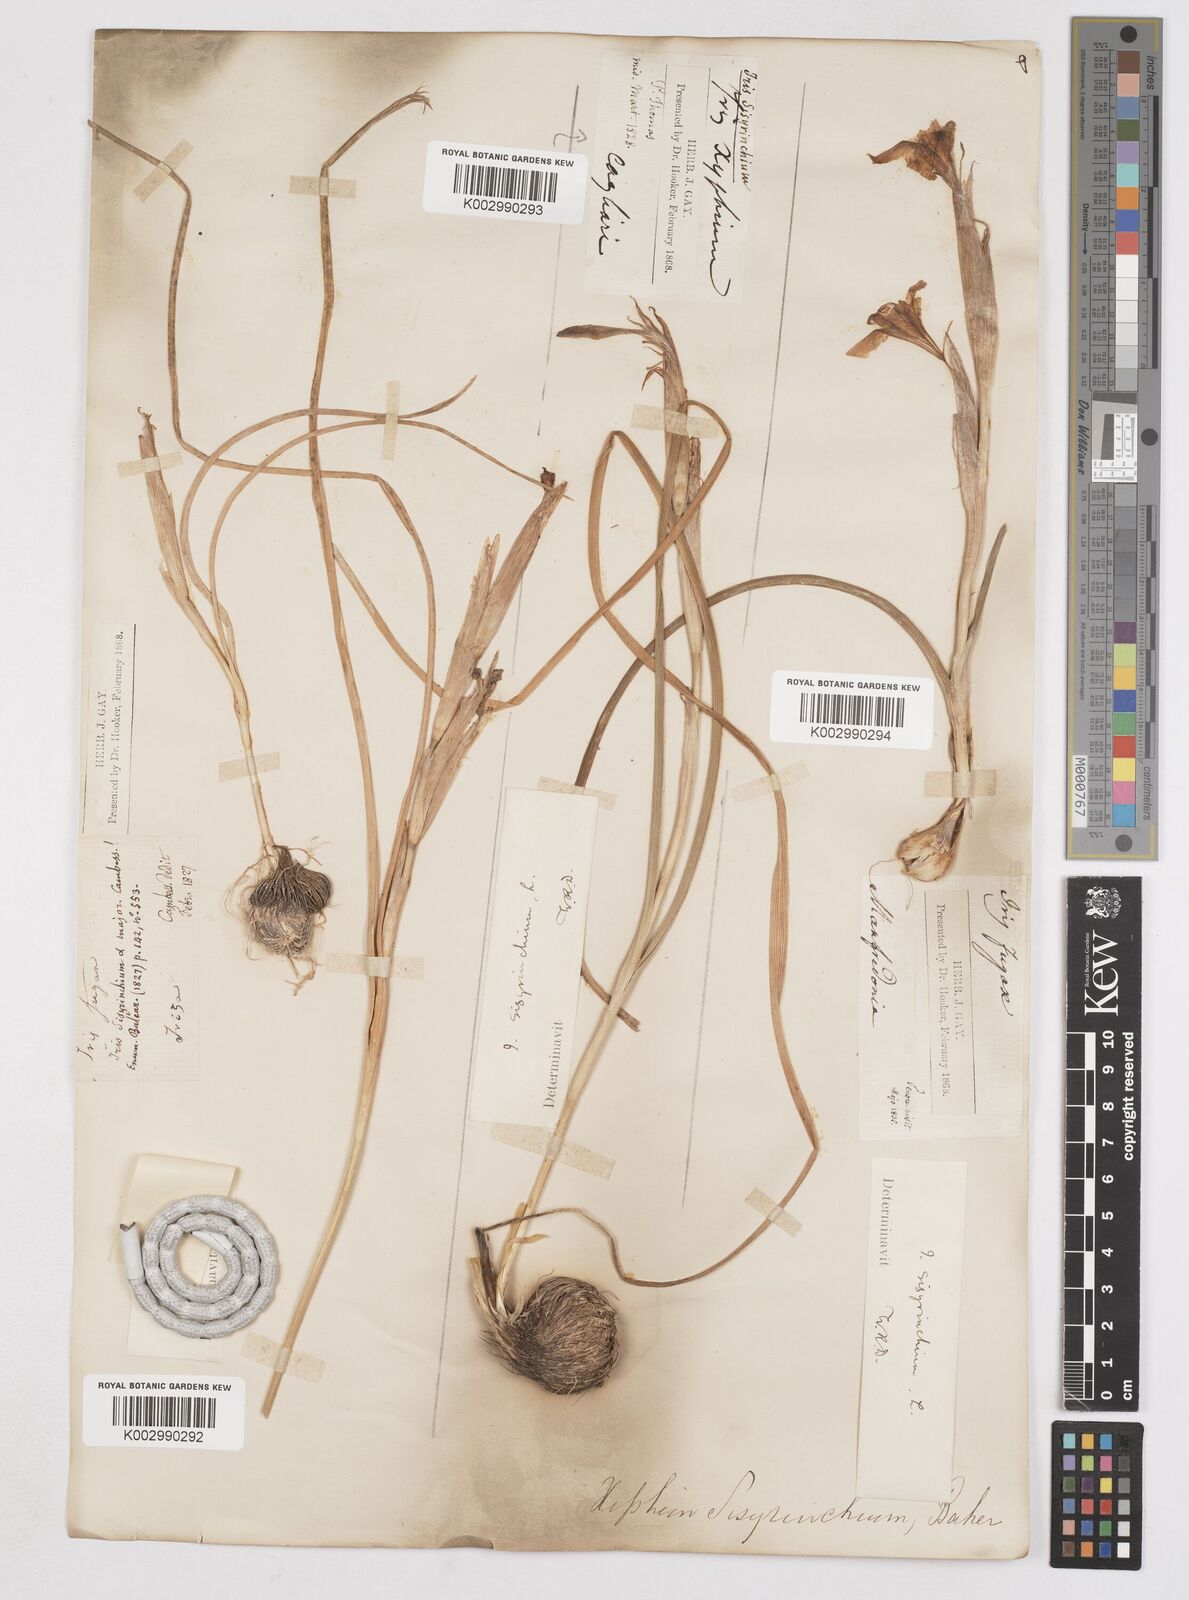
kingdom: Plantae
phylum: Tracheophyta
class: Liliopsida
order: Asparagales
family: Iridaceae
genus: Moraea
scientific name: Moraea sisyrinchium
